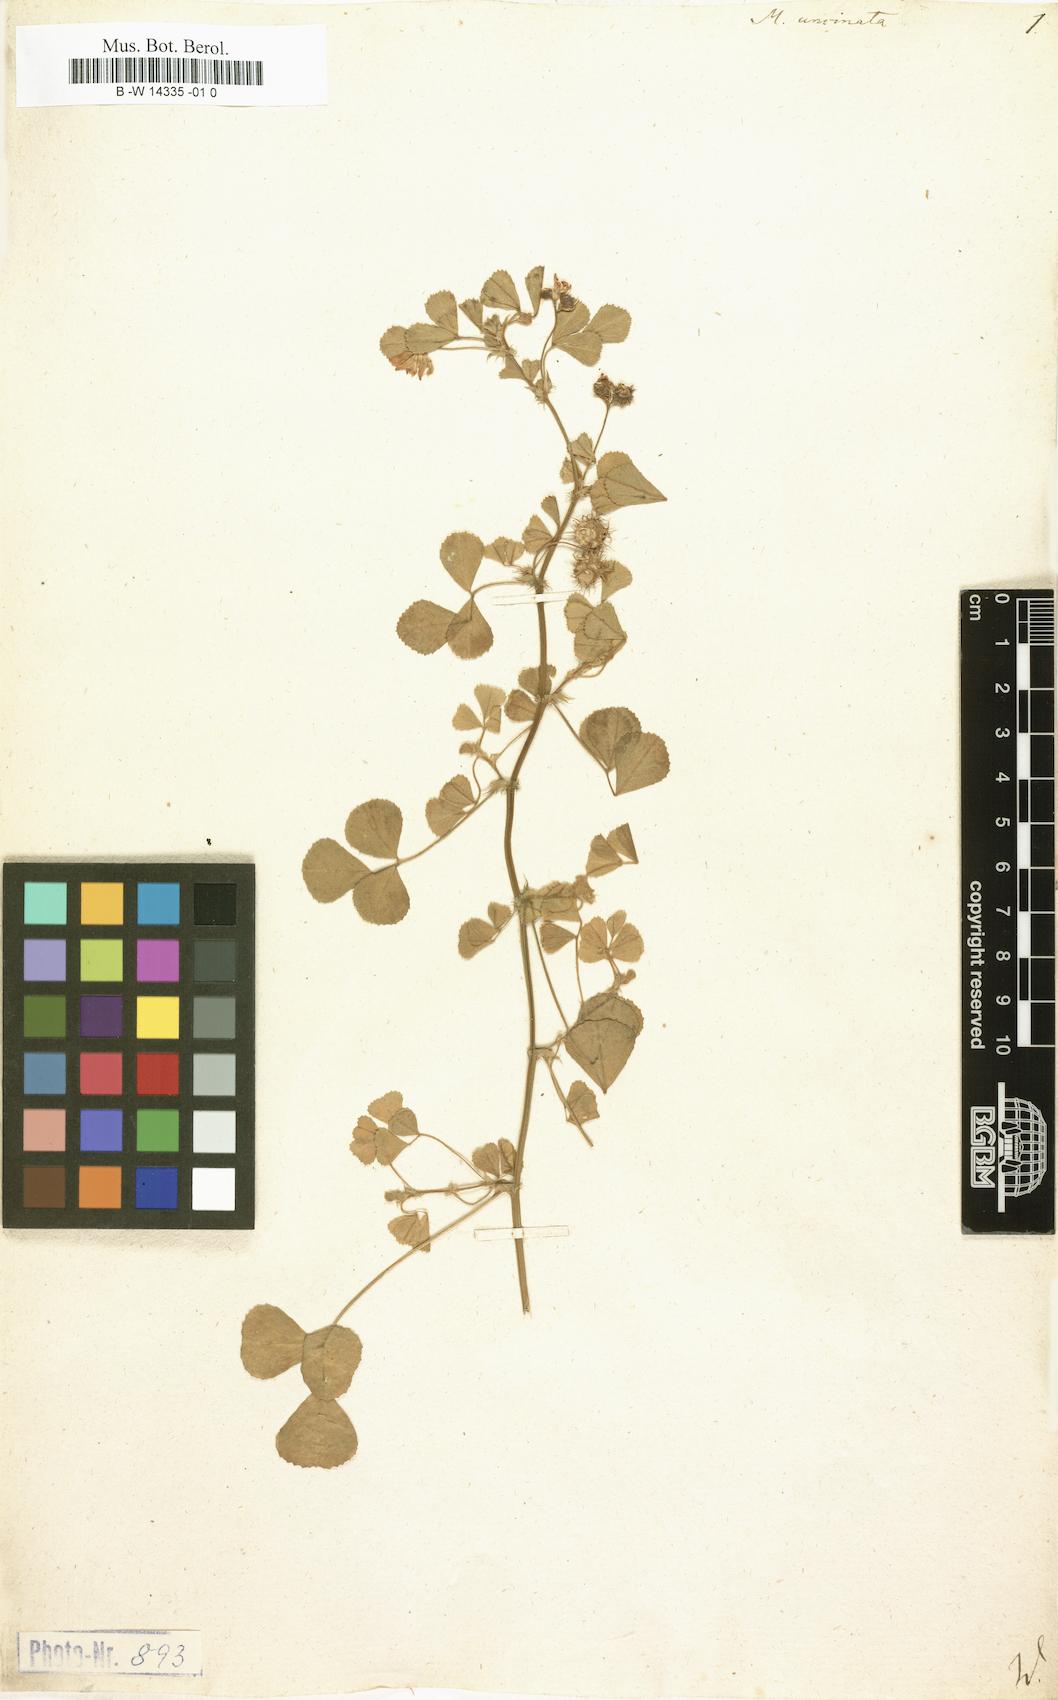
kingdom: Plantae
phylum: Tracheophyta
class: Magnoliopsida
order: Fabales
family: Fabaceae
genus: Medicago
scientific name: Medicago truncatula
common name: Strong-spined medick
